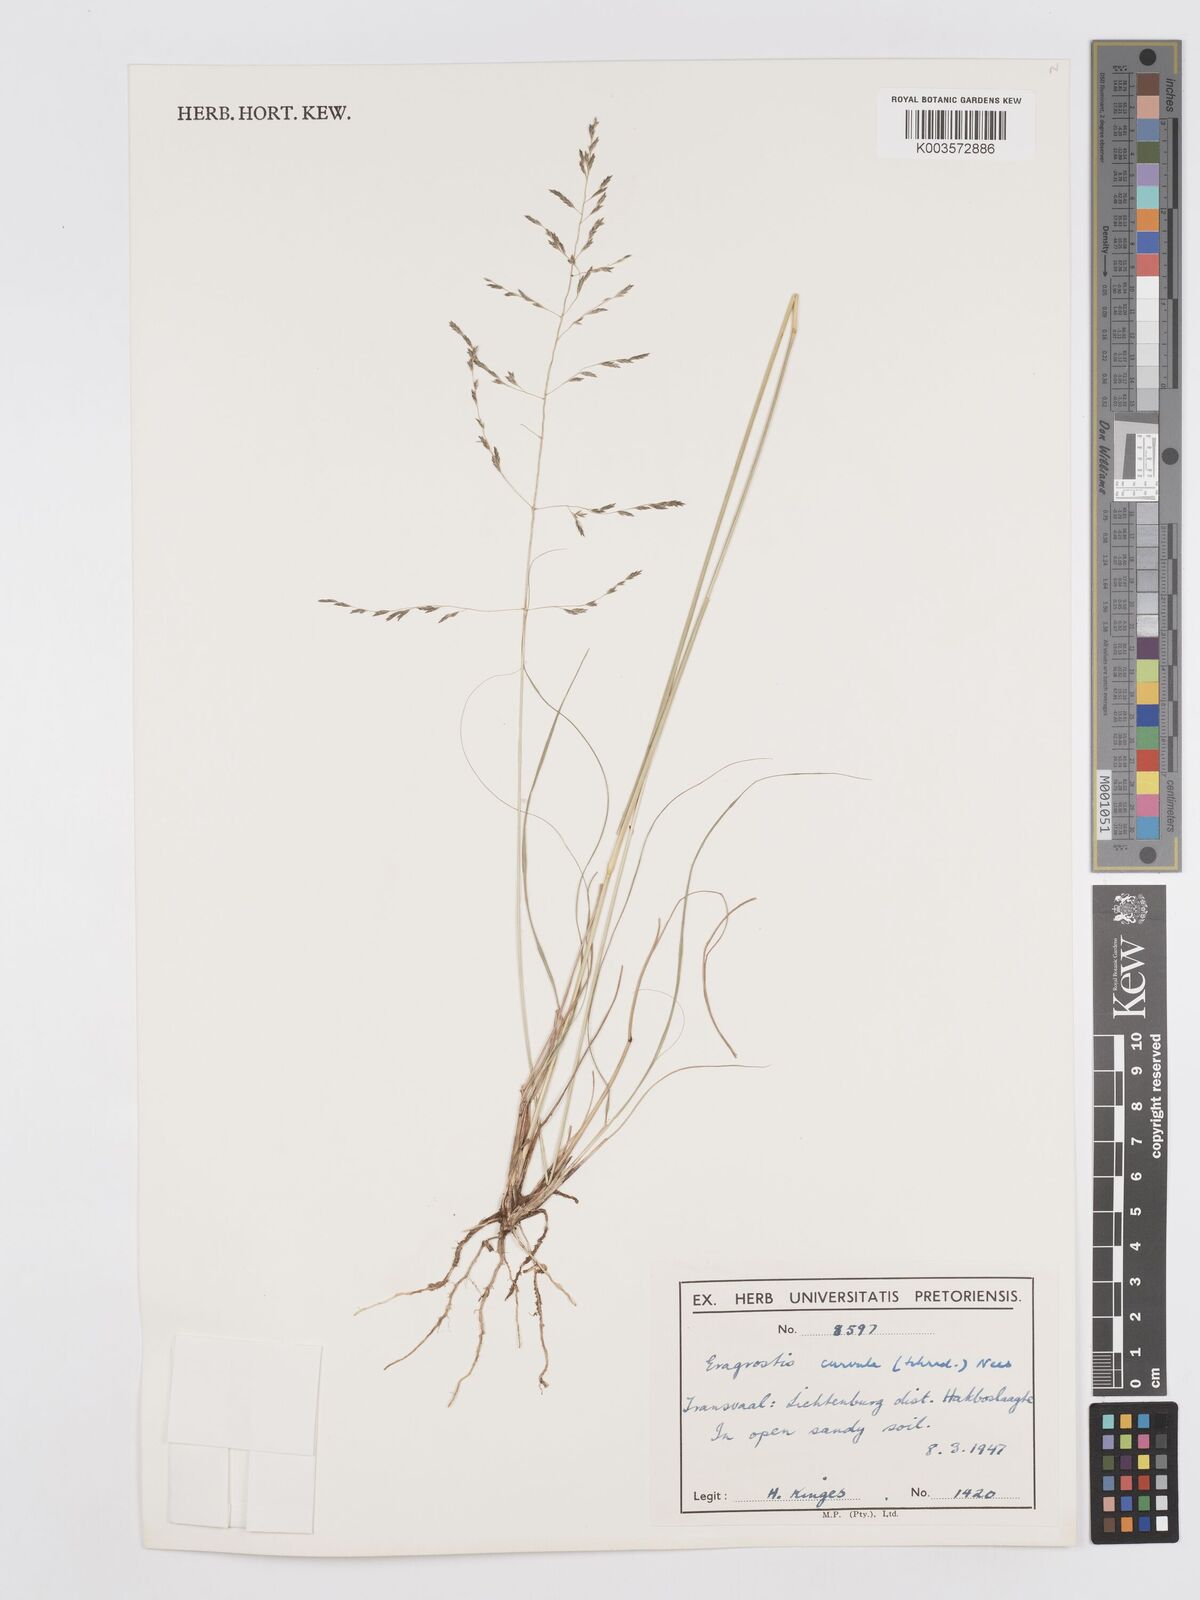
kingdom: Plantae
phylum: Tracheophyta
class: Liliopsida
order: Poales
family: Poaceae
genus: Eragrostis
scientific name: Eragrostis curvula
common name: African love-grass
